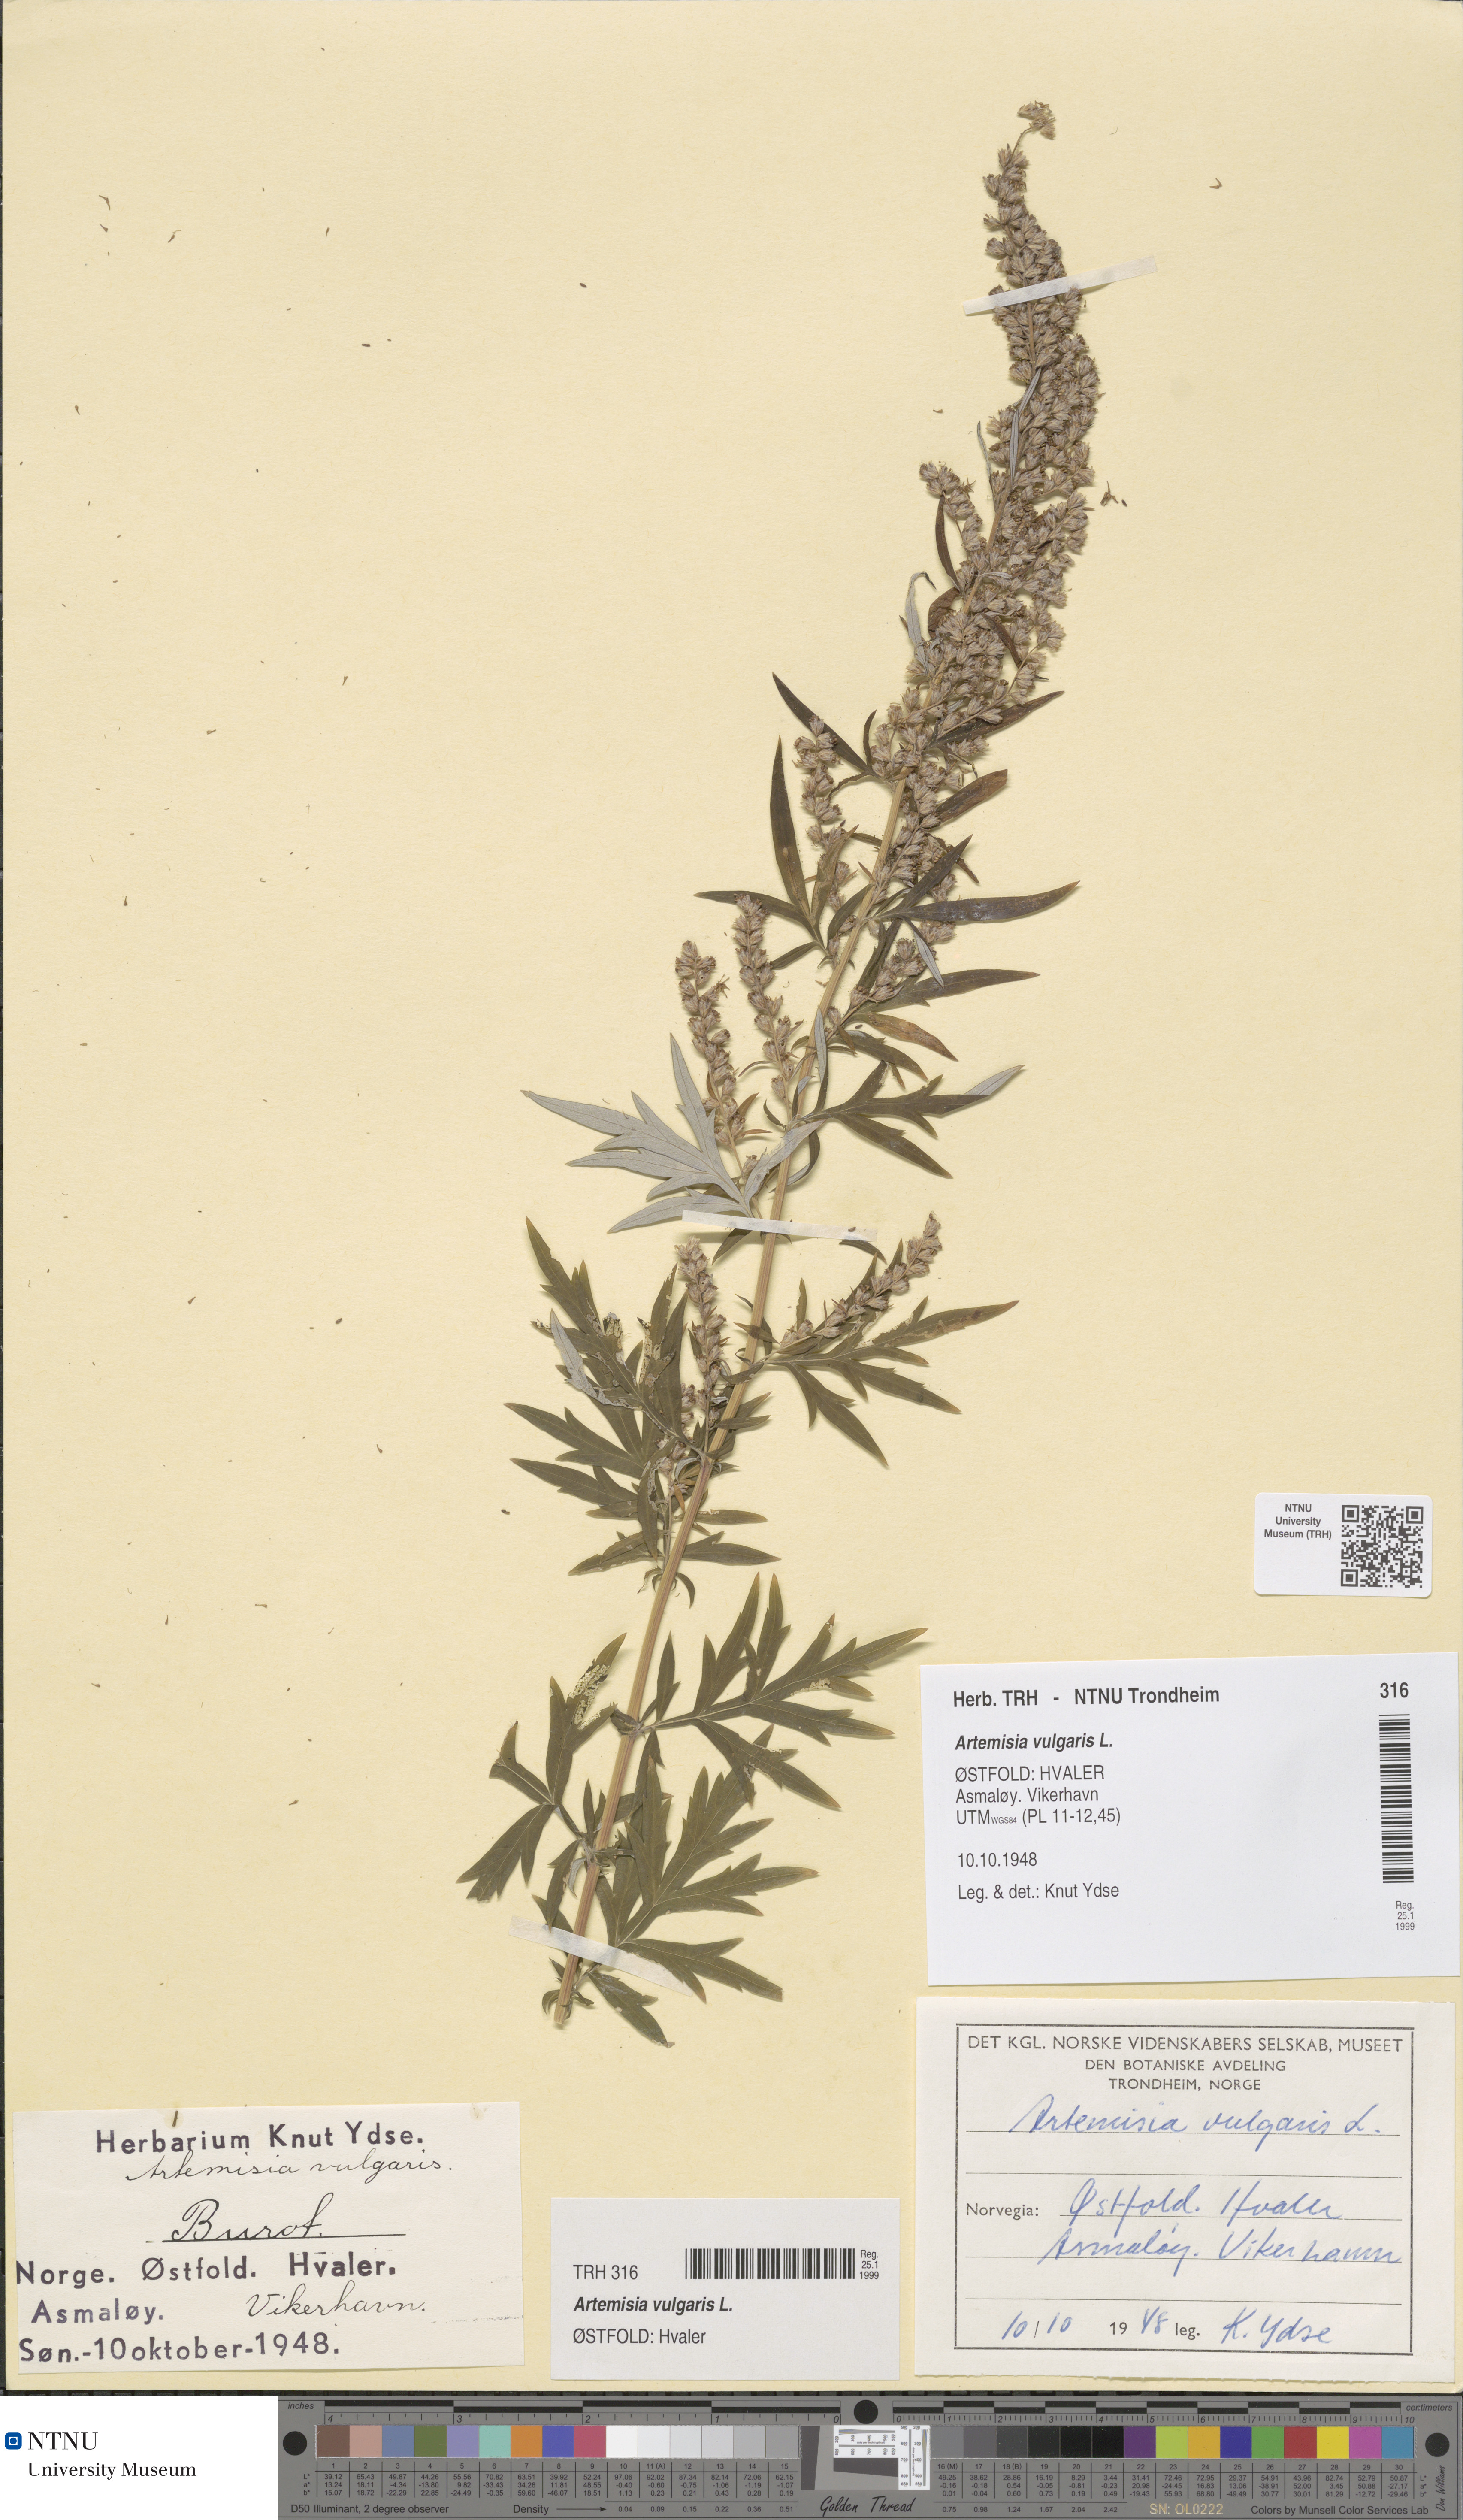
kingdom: Plantae
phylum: Tracheophyta
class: Magnoliopsida
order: Asterales
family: Asteraceae
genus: Artemisia
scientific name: Artemisia vulgaris
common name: Mugwort
